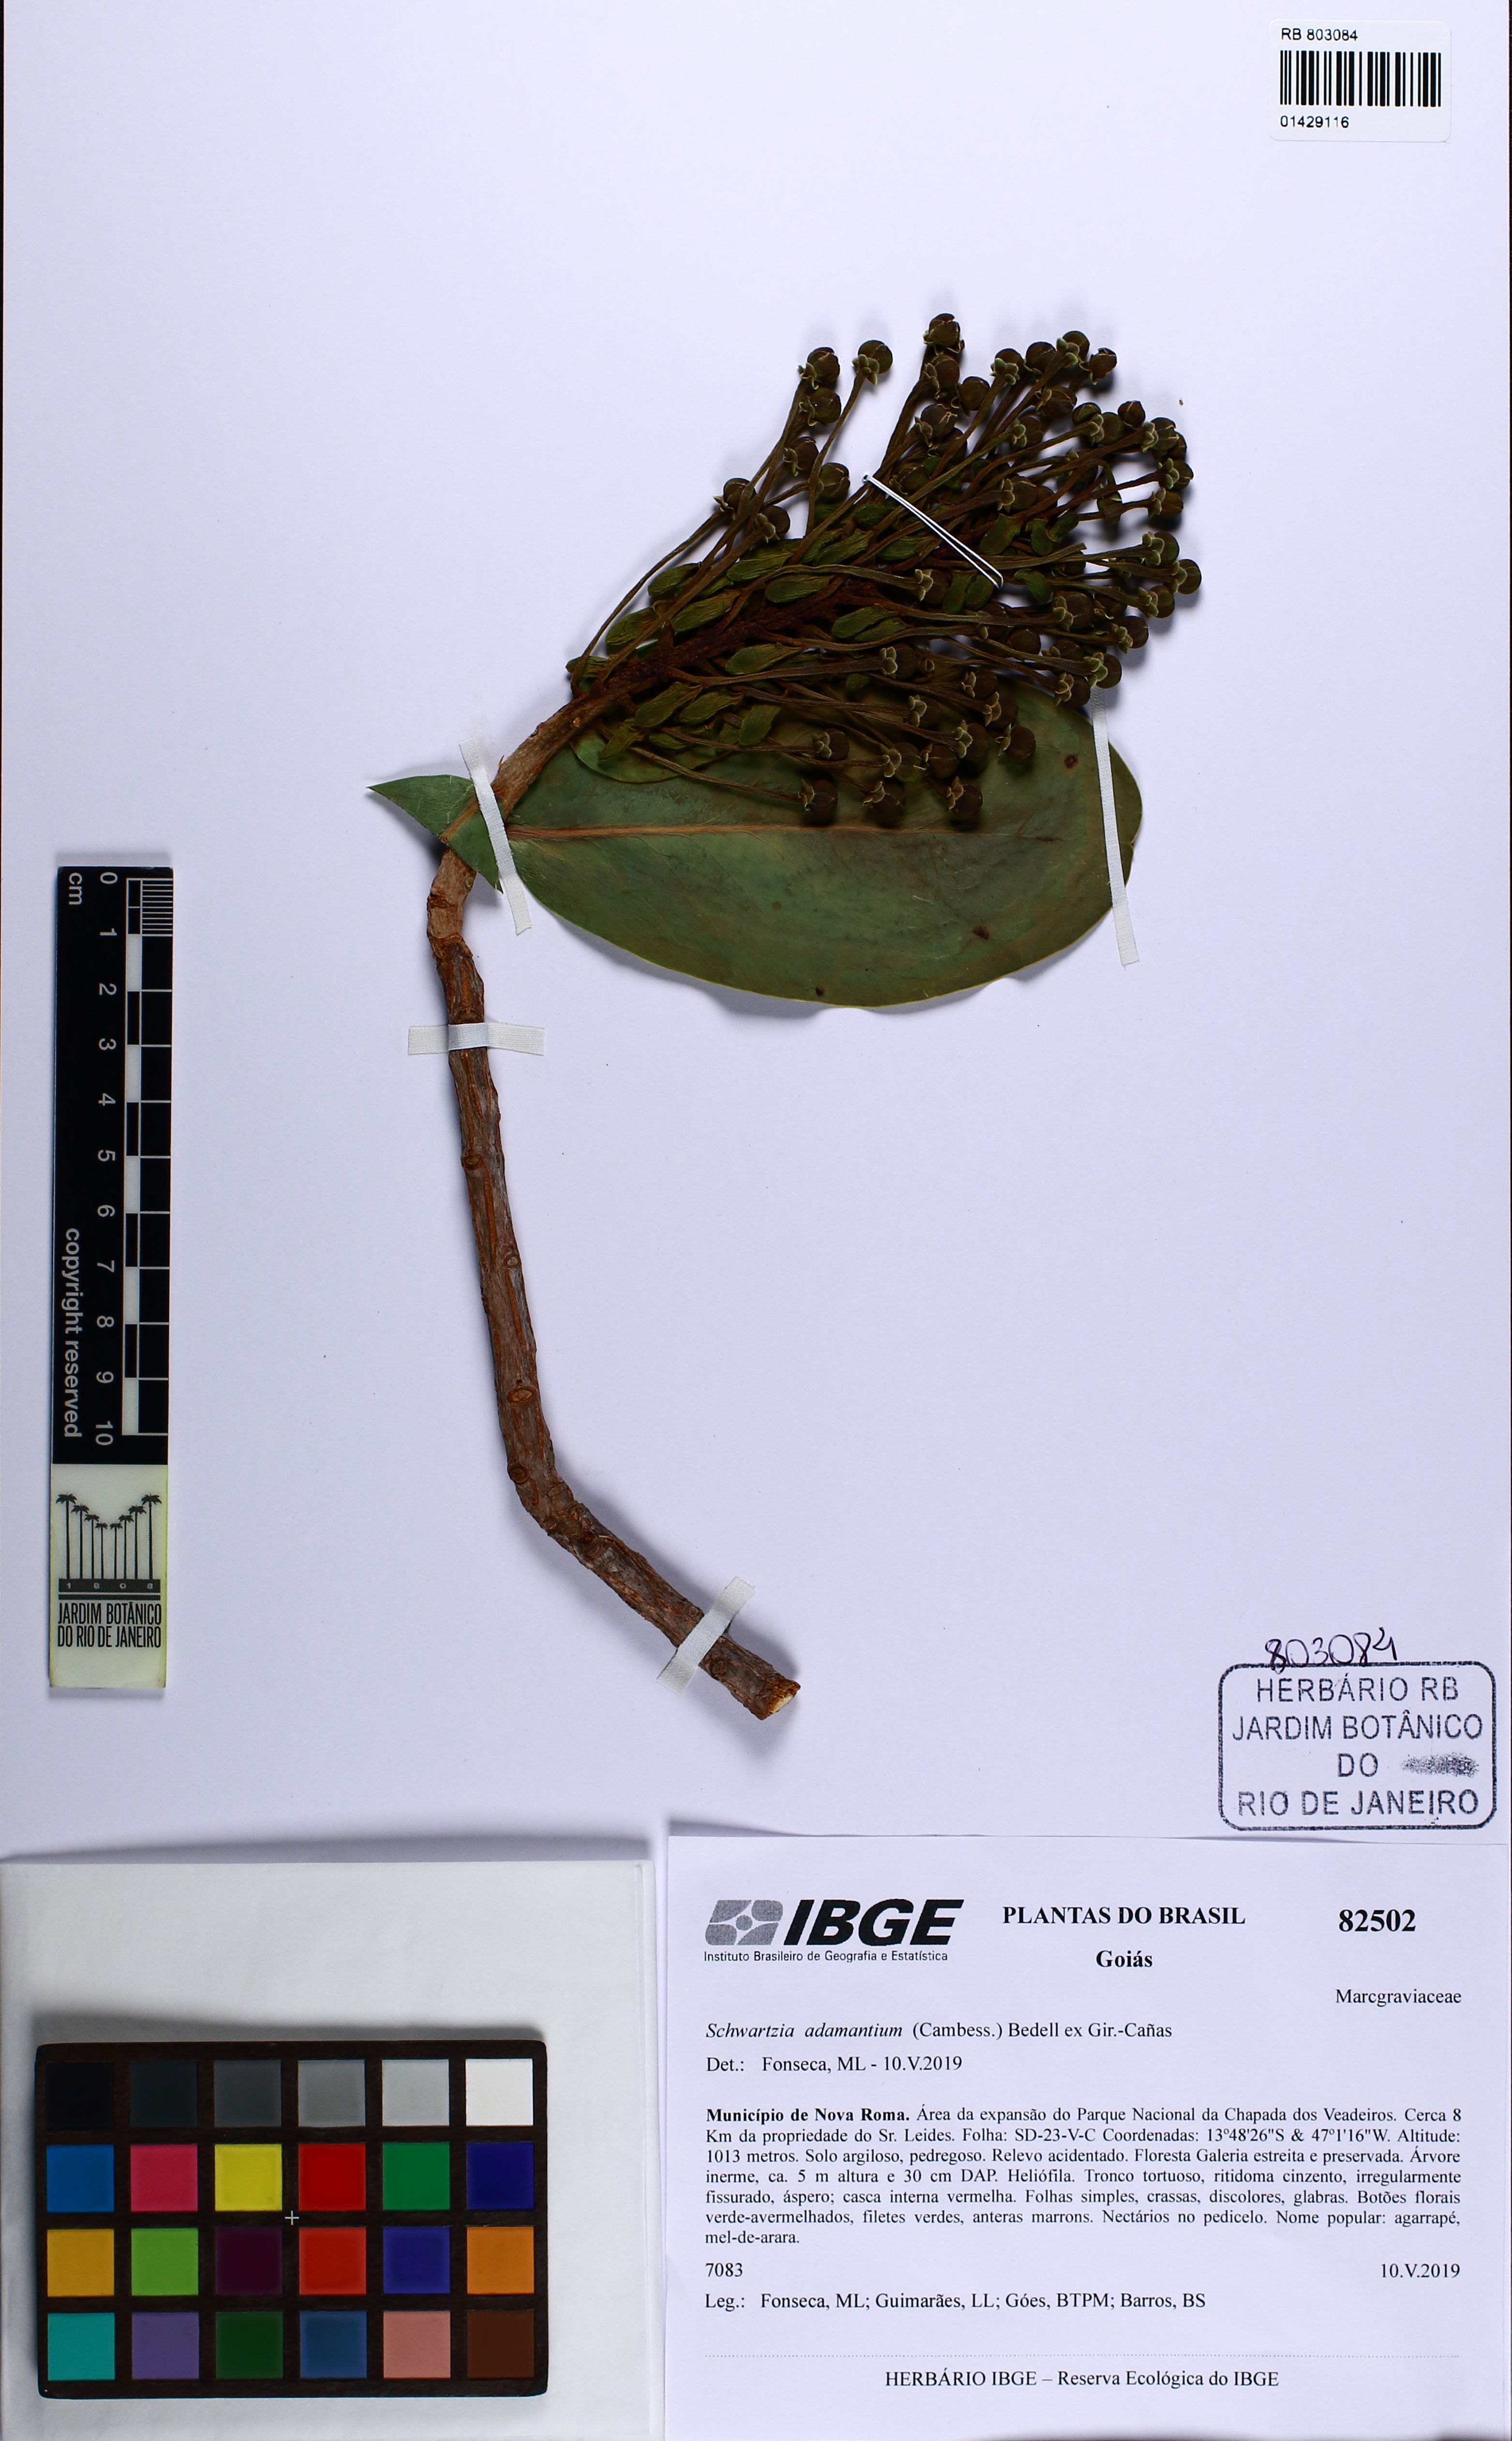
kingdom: Plantae
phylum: Tracheophyta
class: Magnoliopsida
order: Ericales
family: Marcgraviaceae
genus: Schwartzia
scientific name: Schwartzia adamantium
